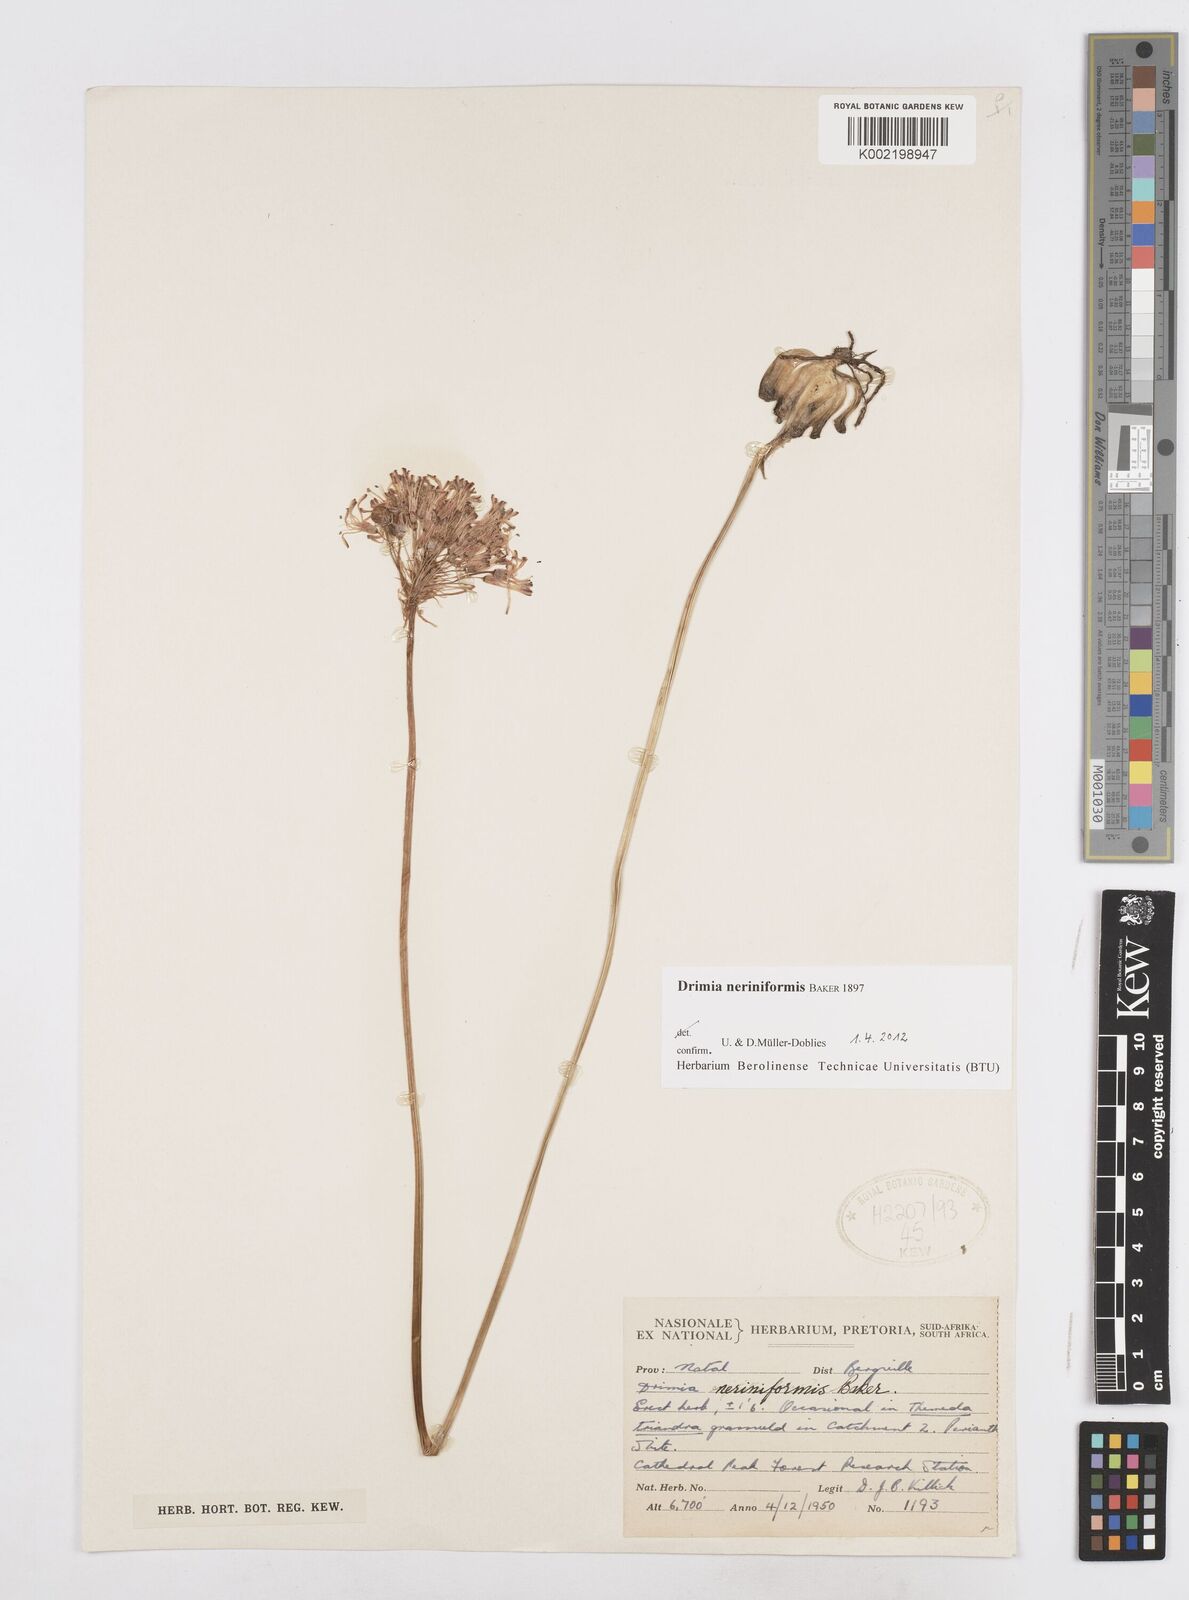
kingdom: Plantae
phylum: Tracheophyta
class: Liliopsida
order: Asparagales
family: Asparagaceae
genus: Drimia
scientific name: Drimia sphaerocephala
